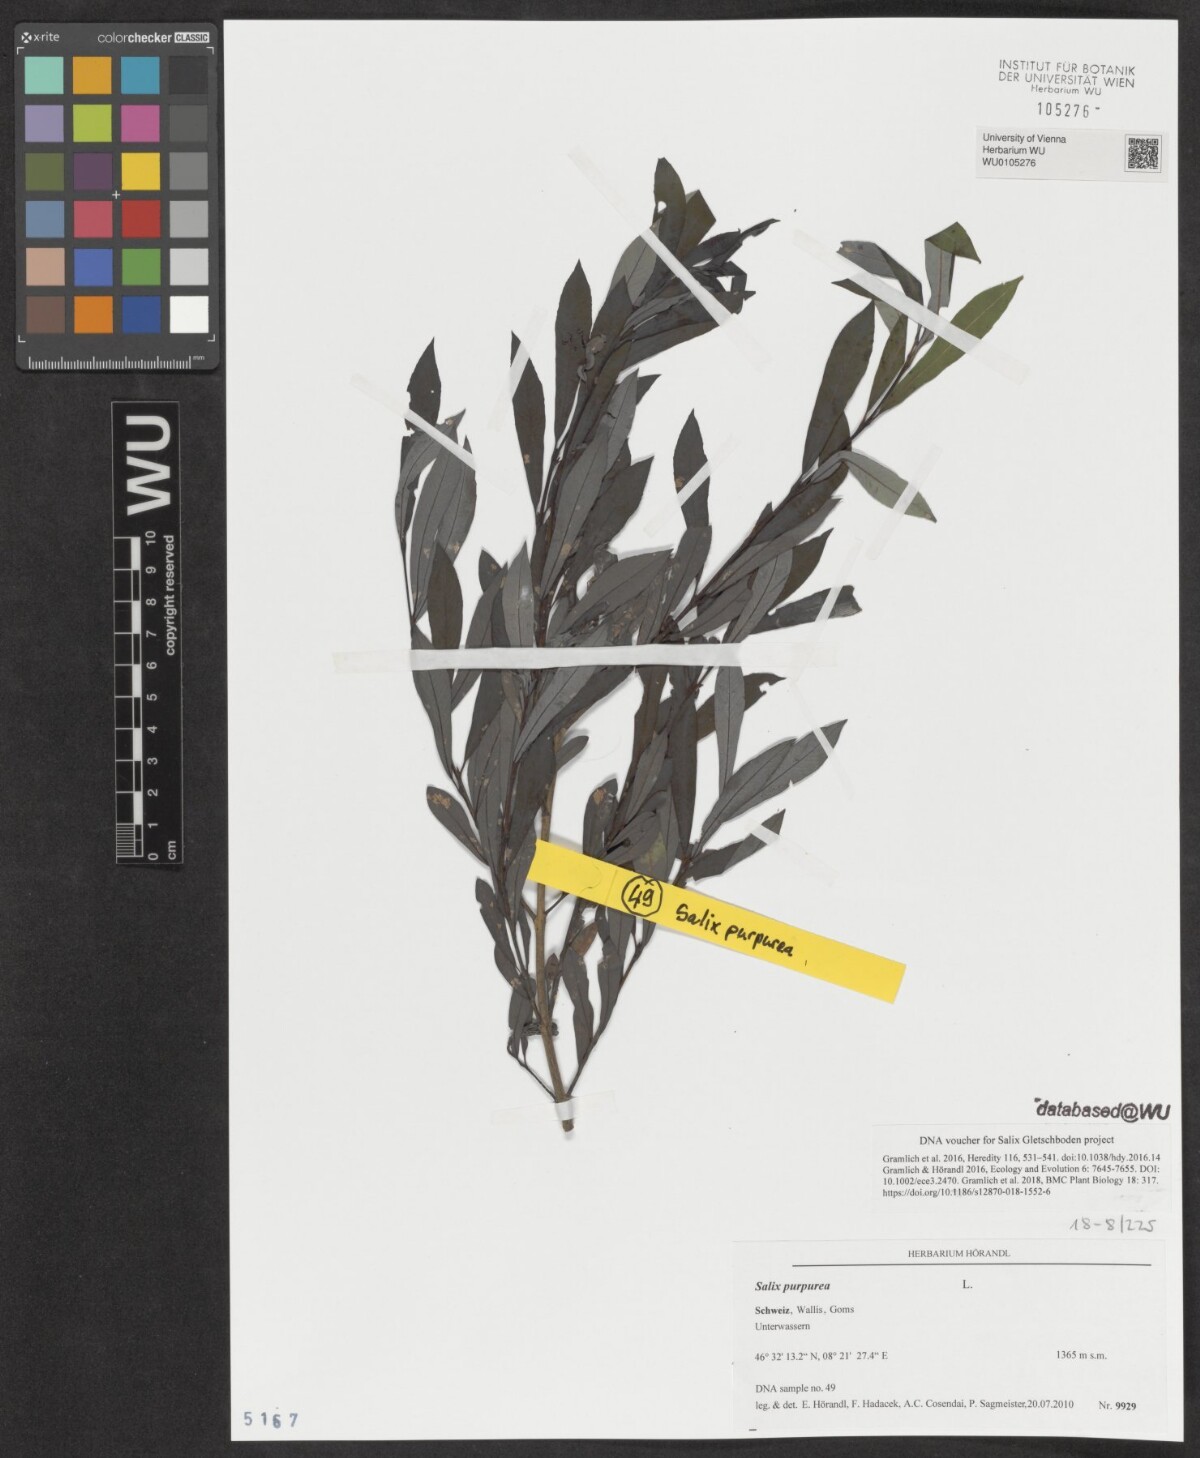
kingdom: Plantae
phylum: Tracheophyta
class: Magnoliopsida
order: Malpighiales
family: Salicaceae
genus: Salix
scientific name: Salix purpurea
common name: Purple willow
